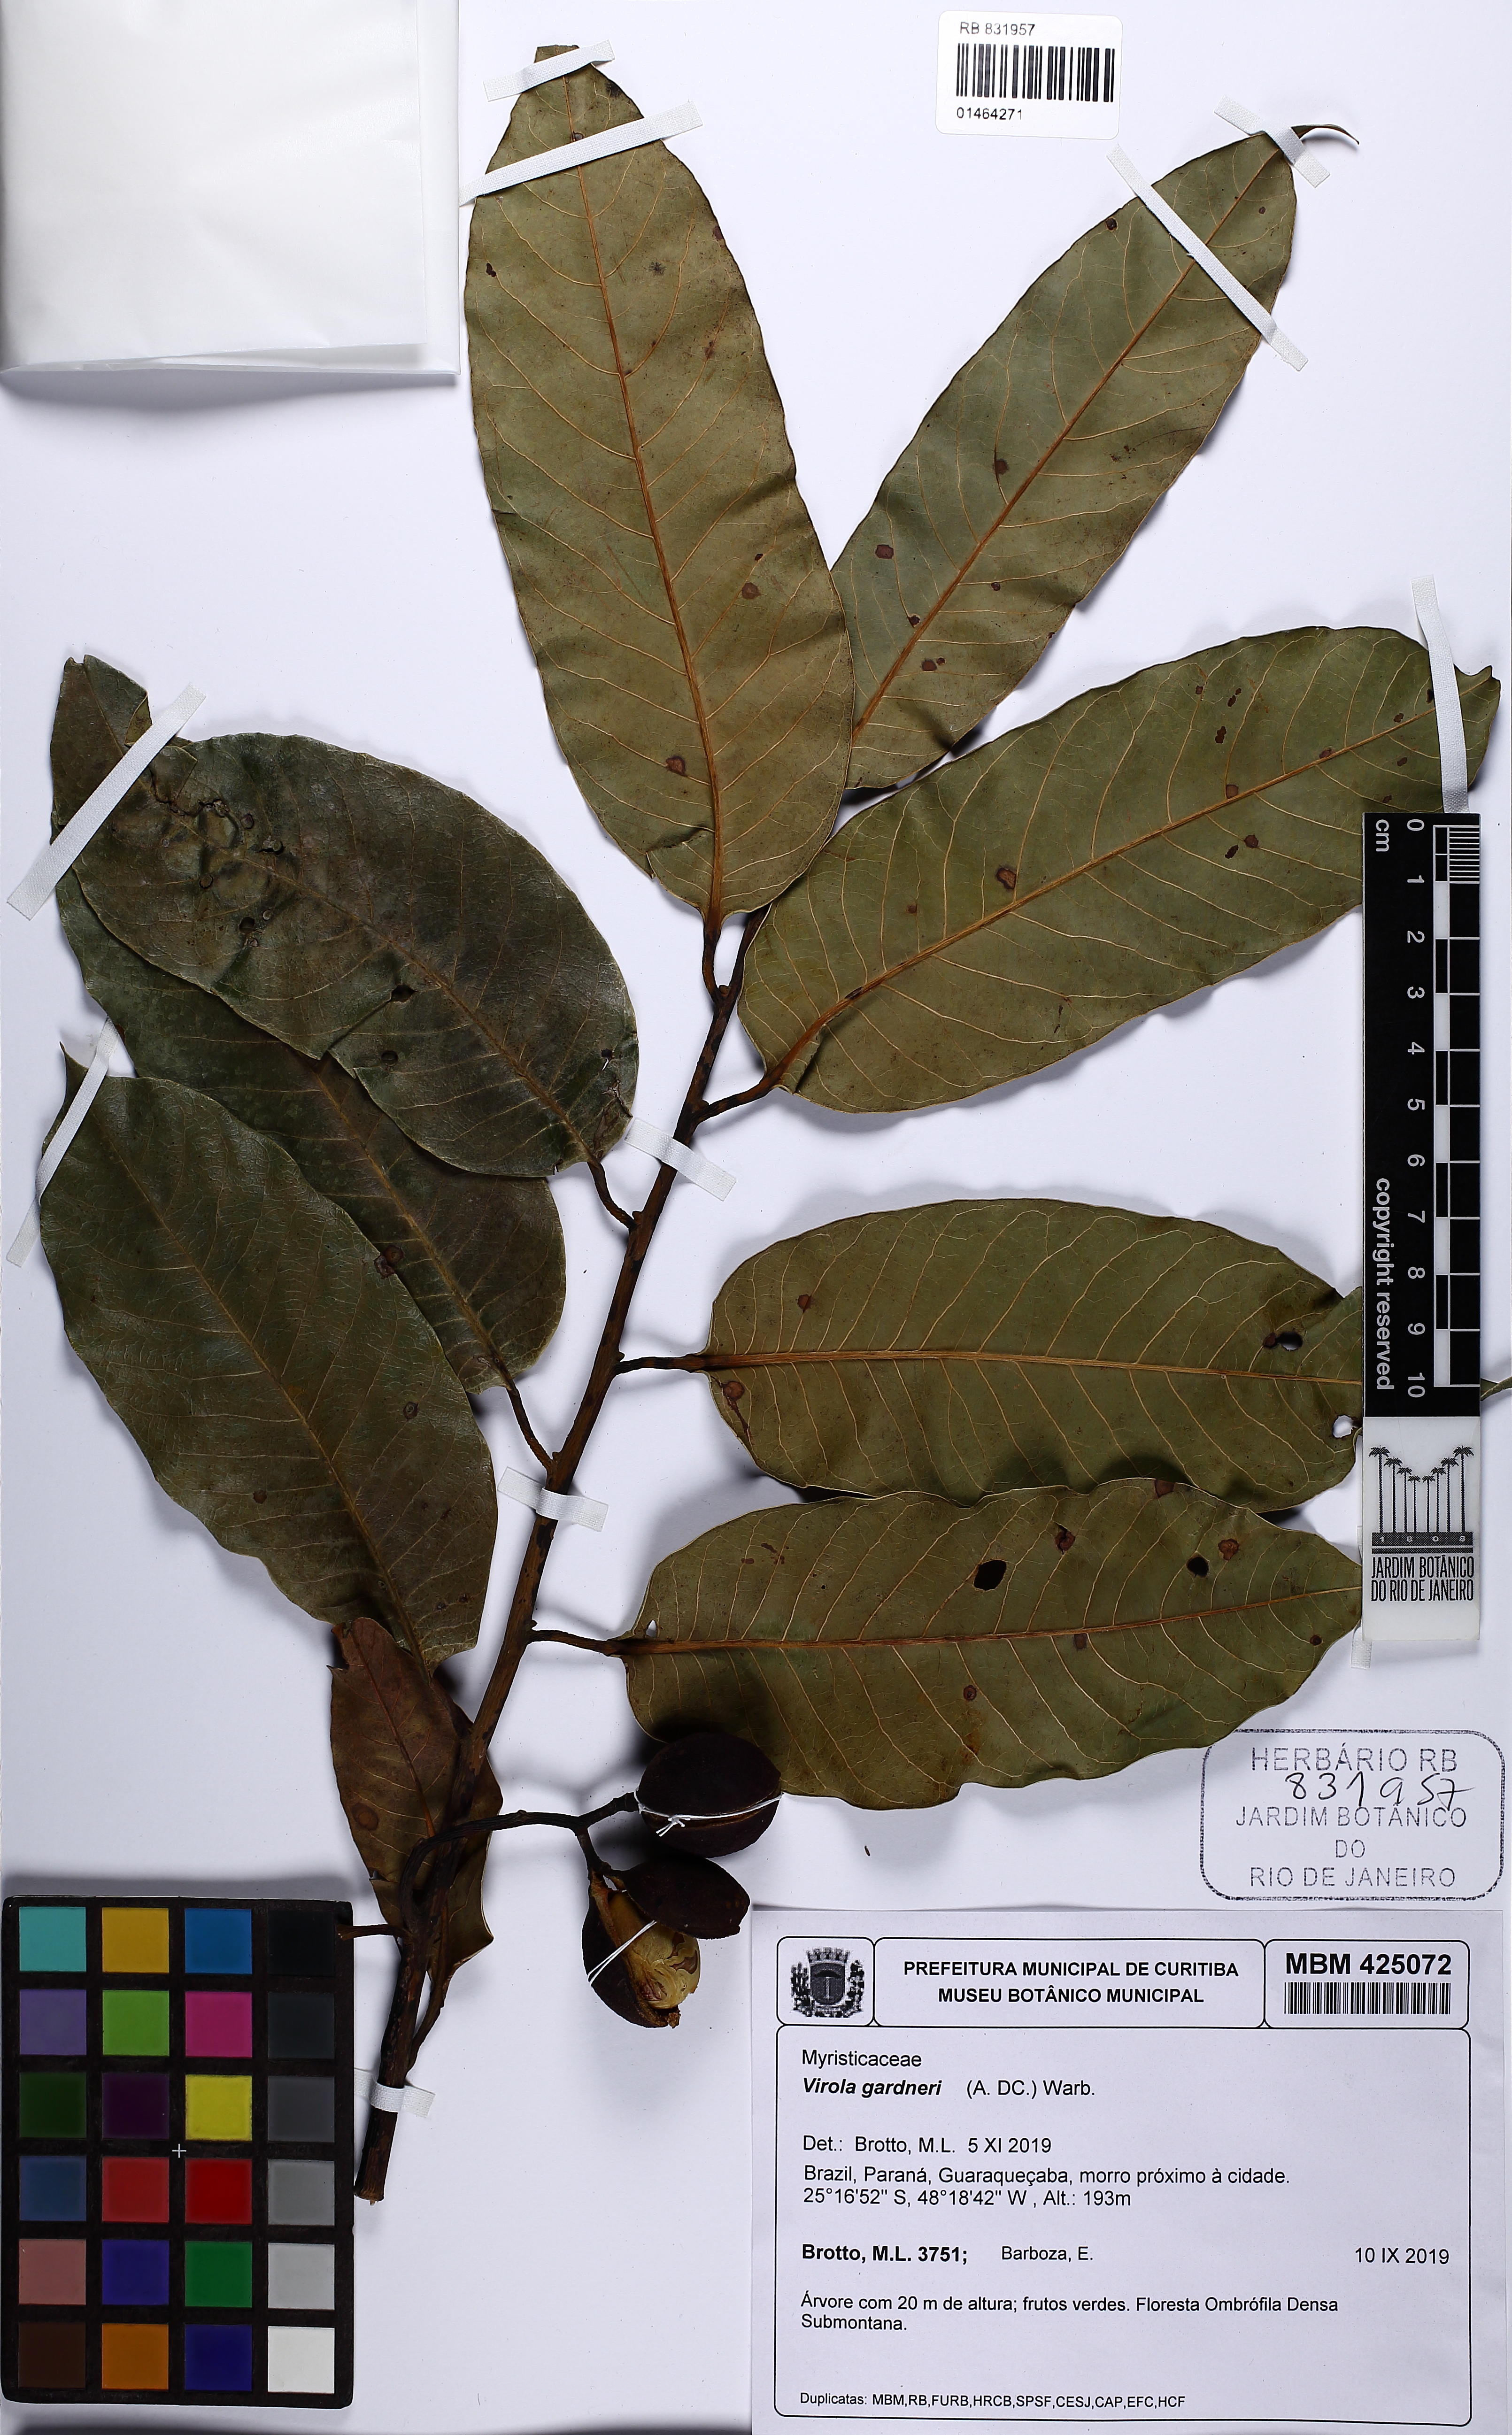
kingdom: Plantae
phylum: Tracheophyta
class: Magnoliopsida
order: Magnoliales
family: Myristicaceae
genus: Virola
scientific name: Virola gardneri
